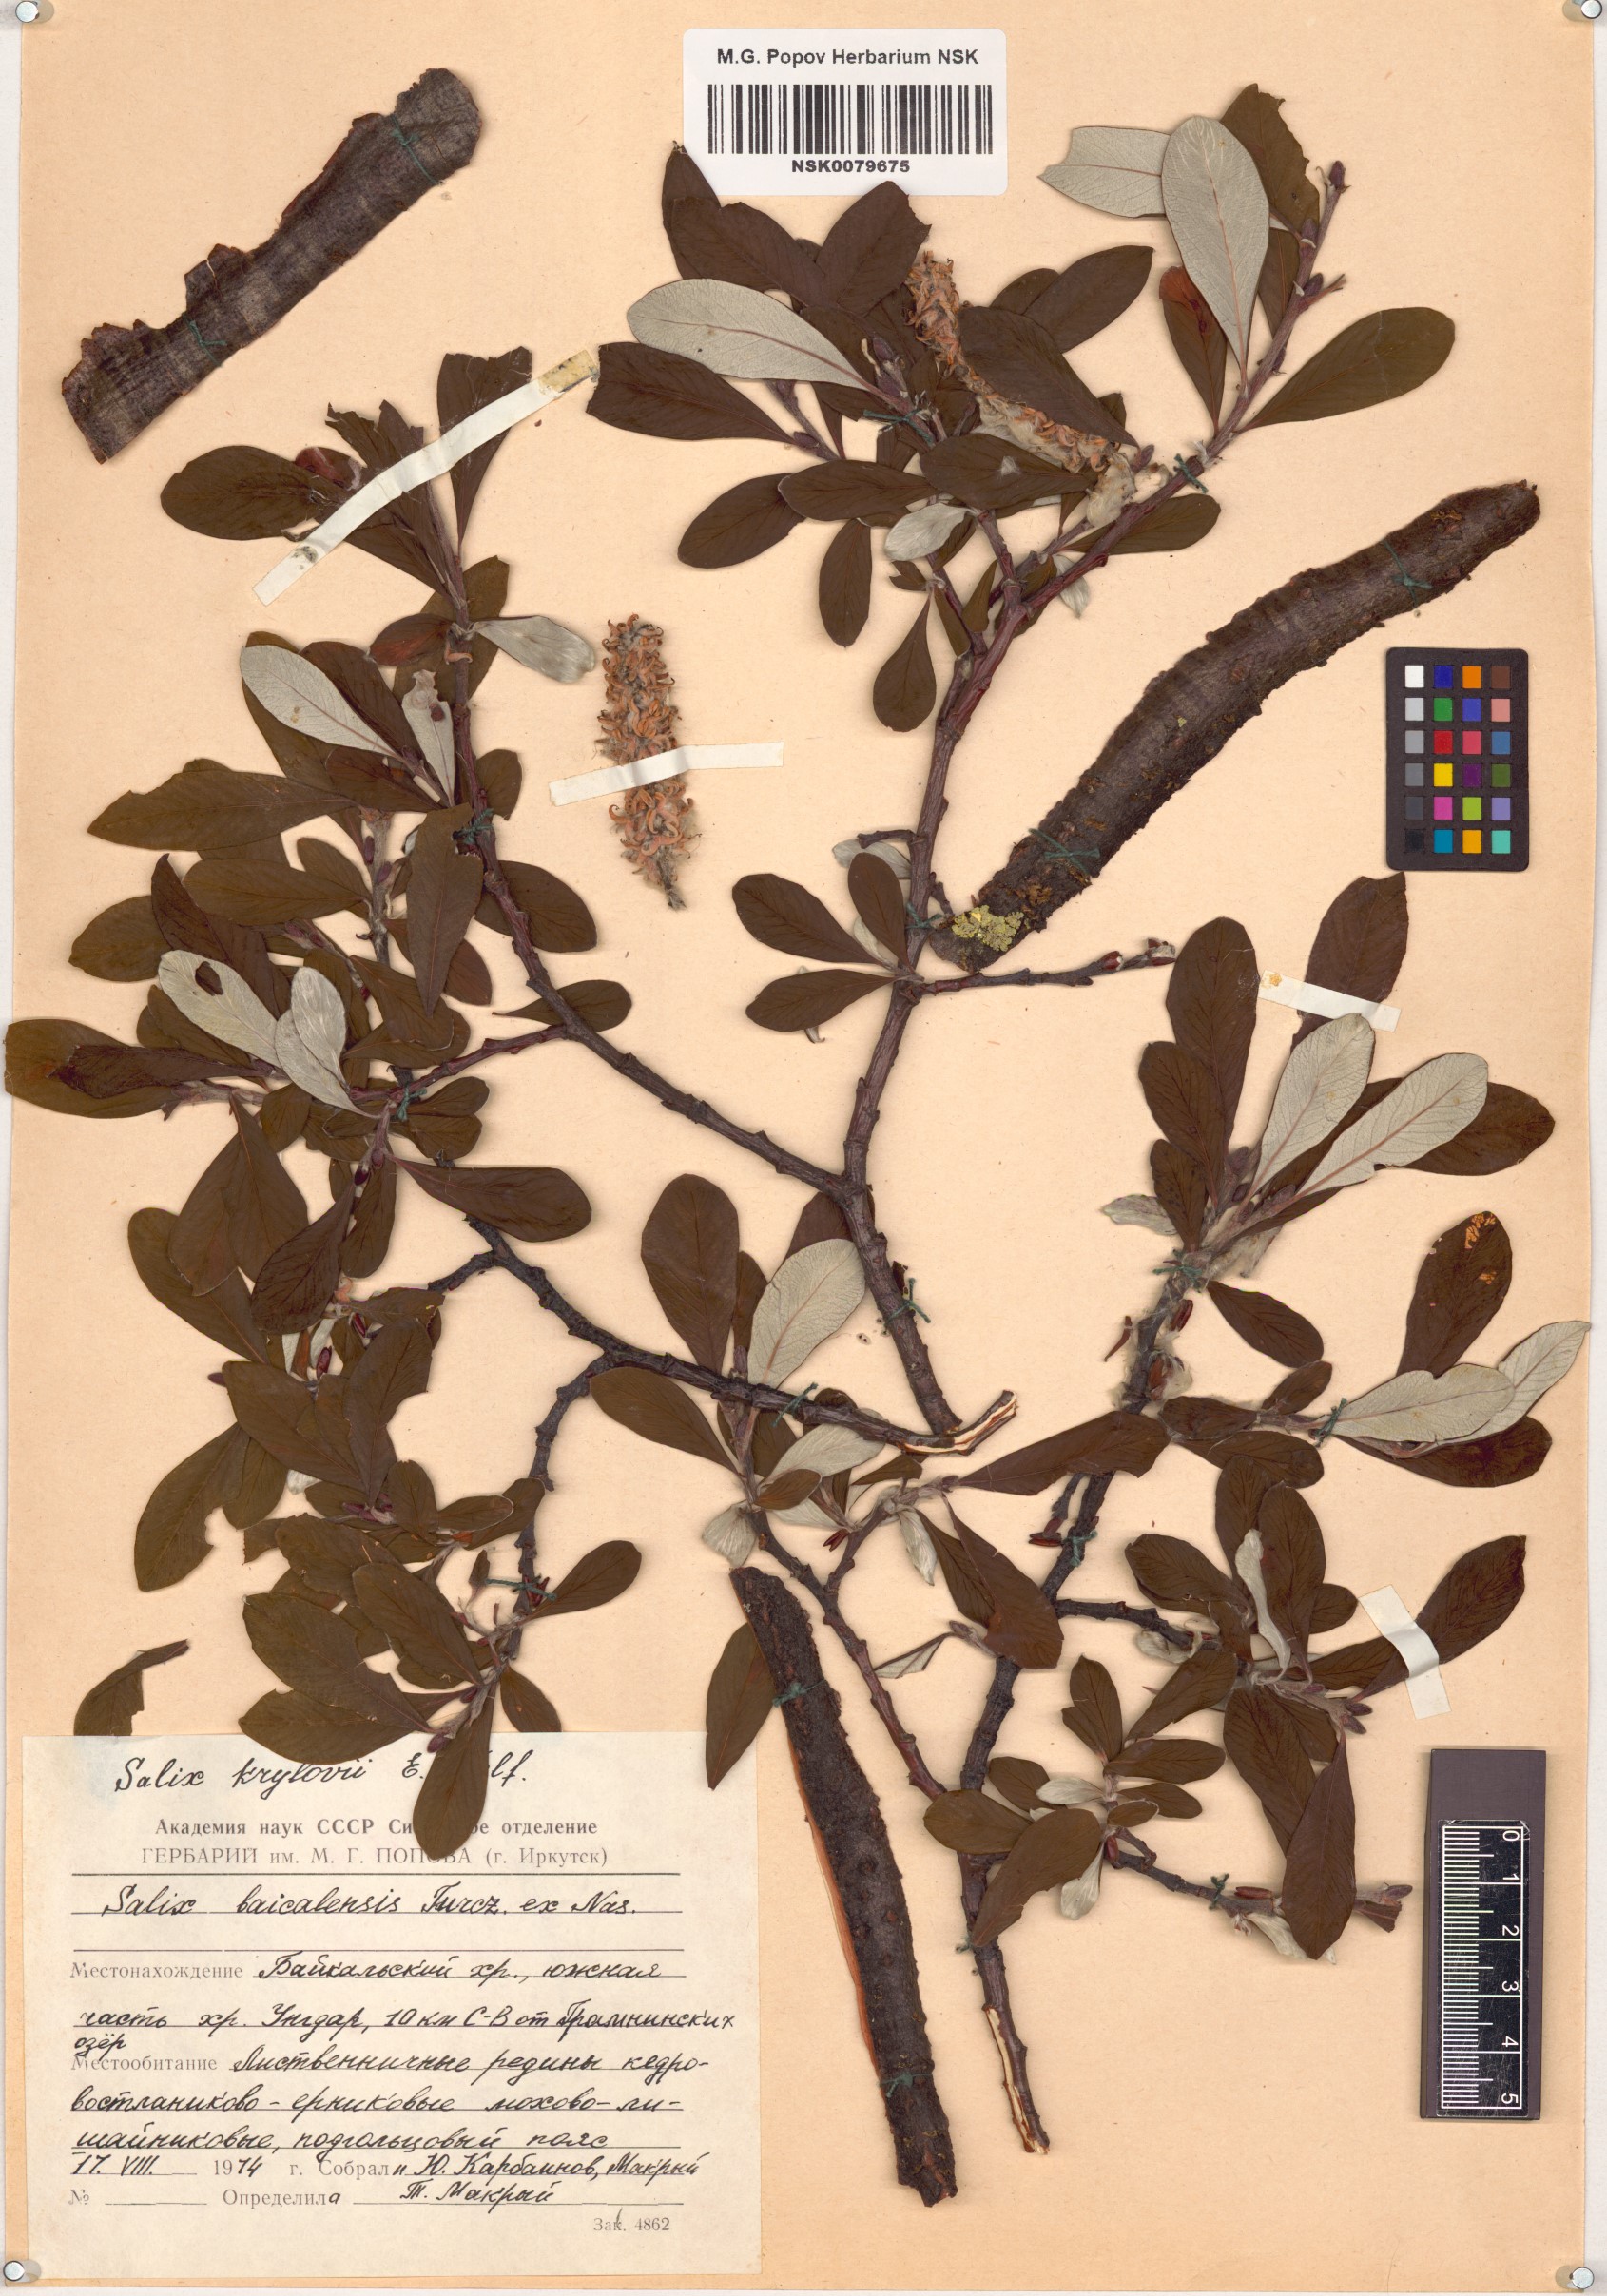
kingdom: Plantae
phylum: Tracheophyta
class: Magnoliopsida
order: Malpighiales
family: Salicaceae
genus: Salix
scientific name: Salix krylovii
